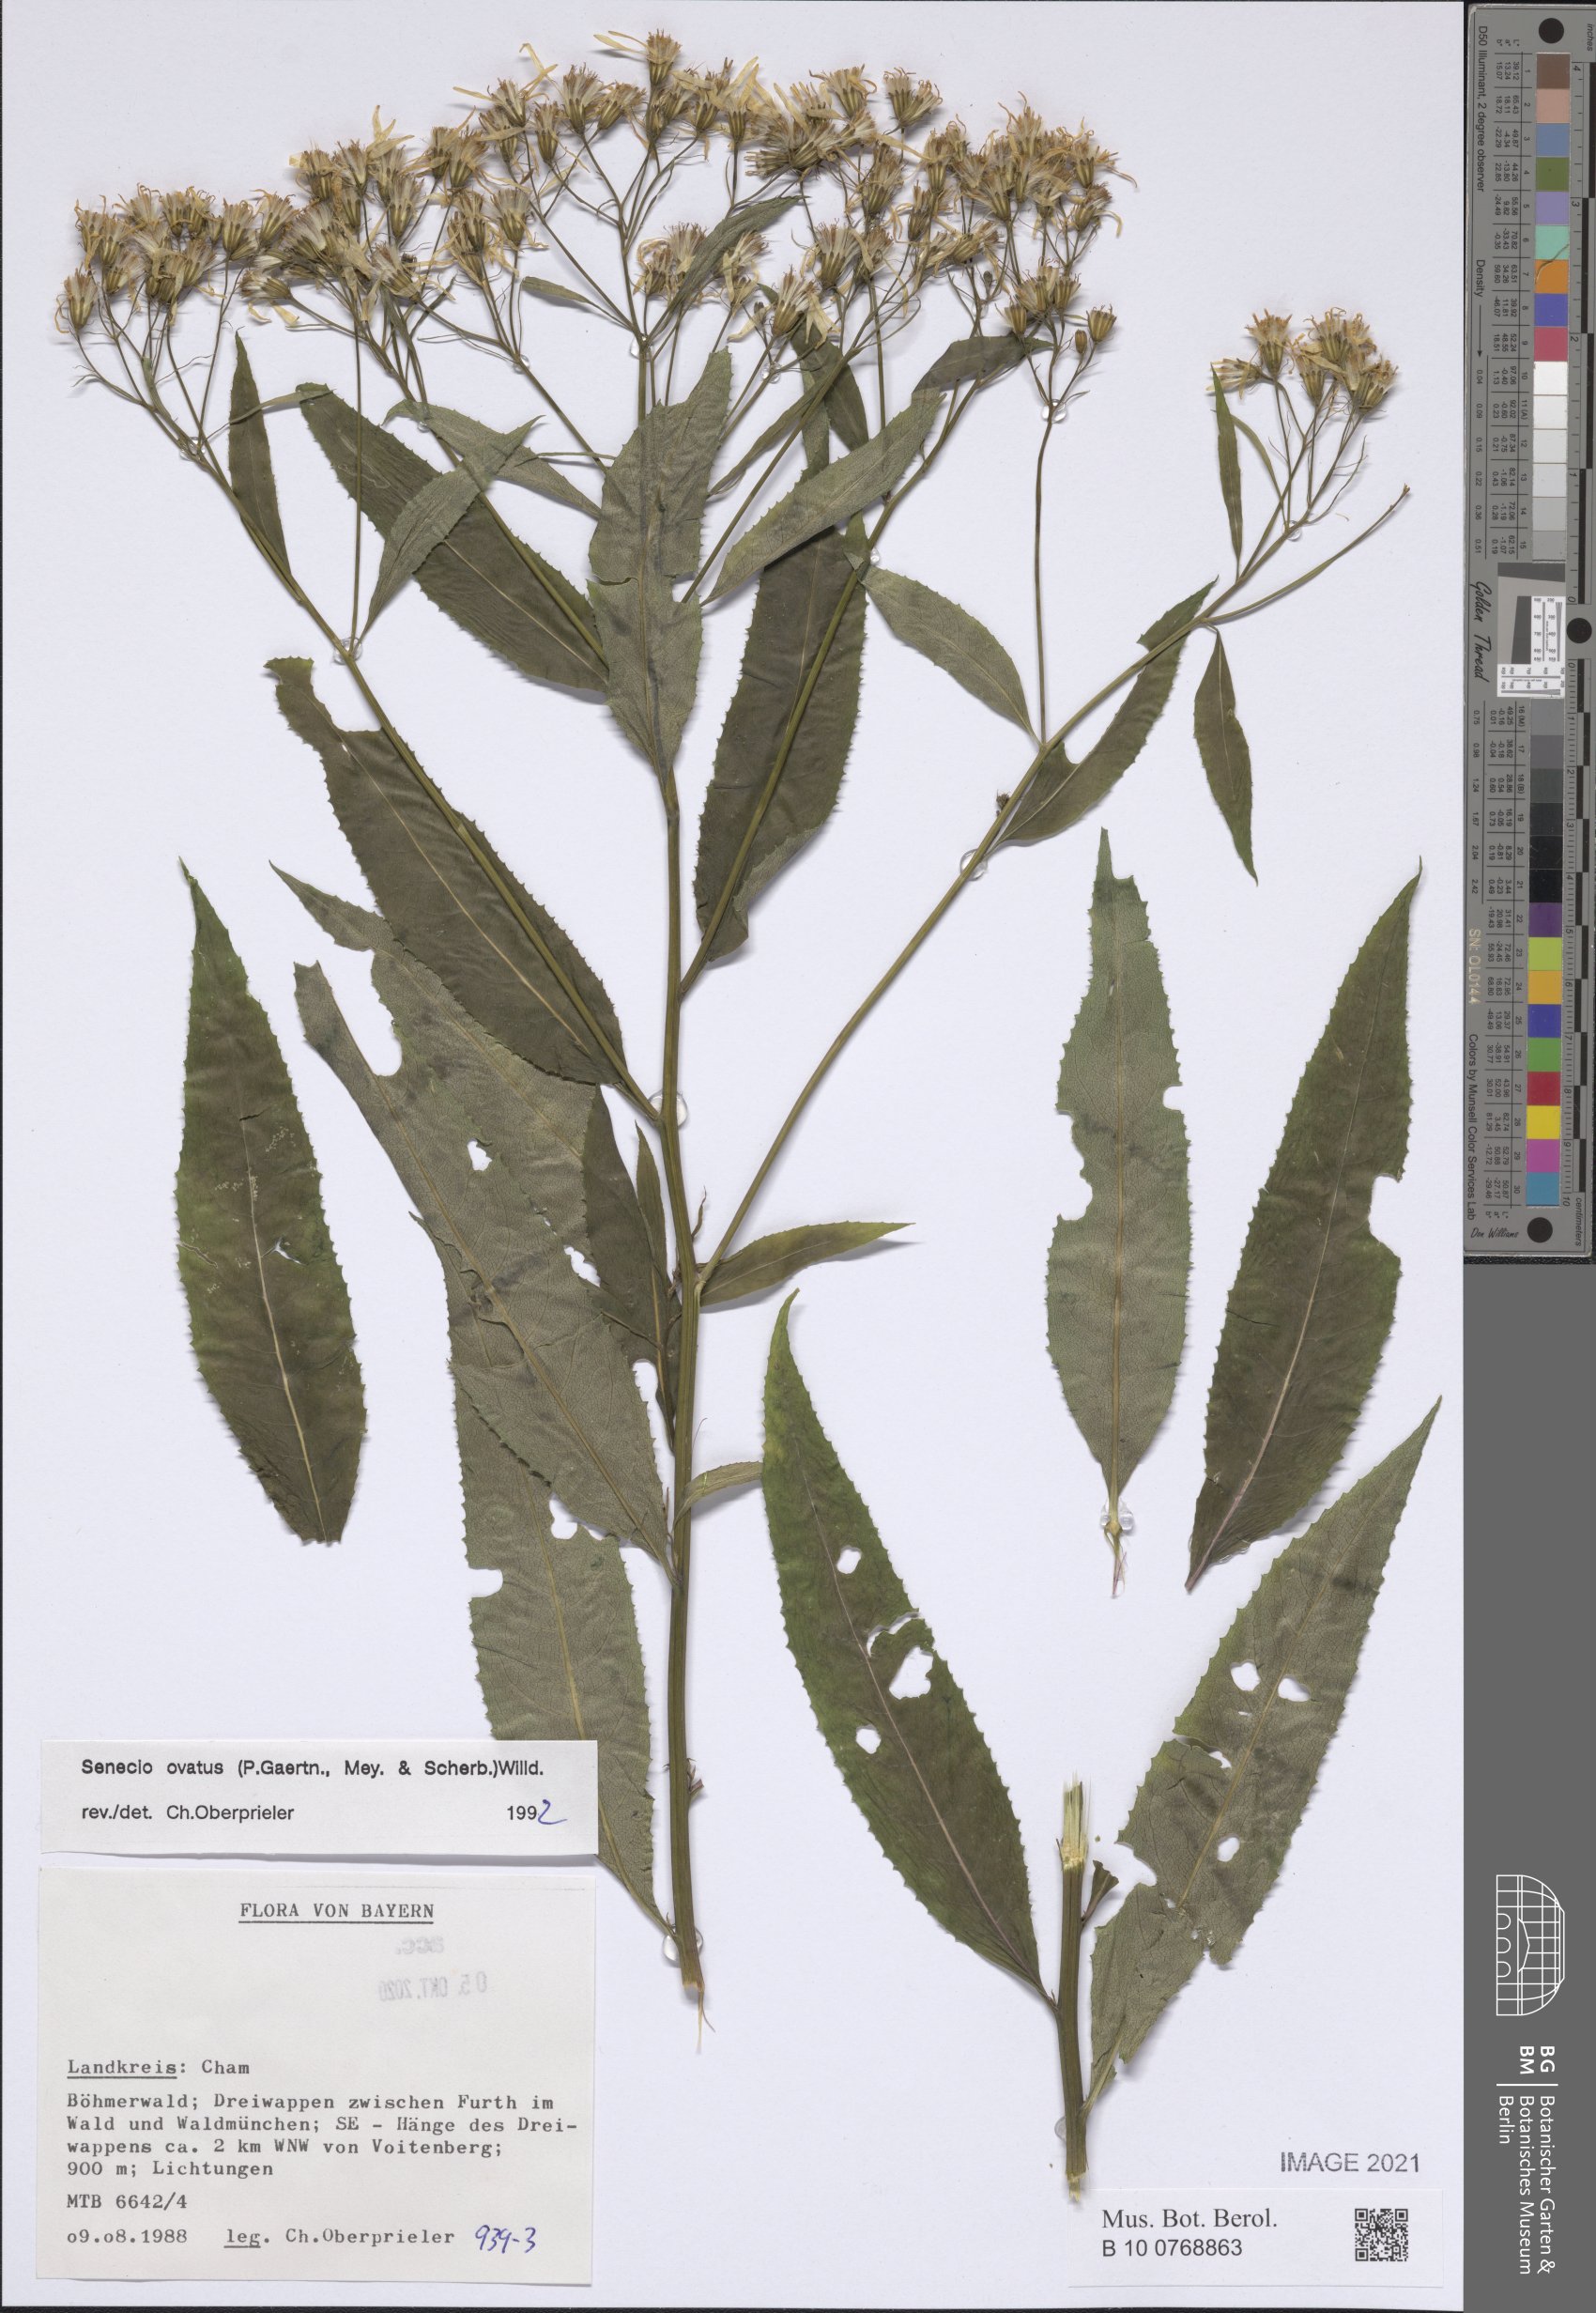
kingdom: Plantae
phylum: Tracheophyta
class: Magnoliopsida
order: Asterales
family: Asteraceae
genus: Senecio
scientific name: Senecio ovatus
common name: Wood ragwort
